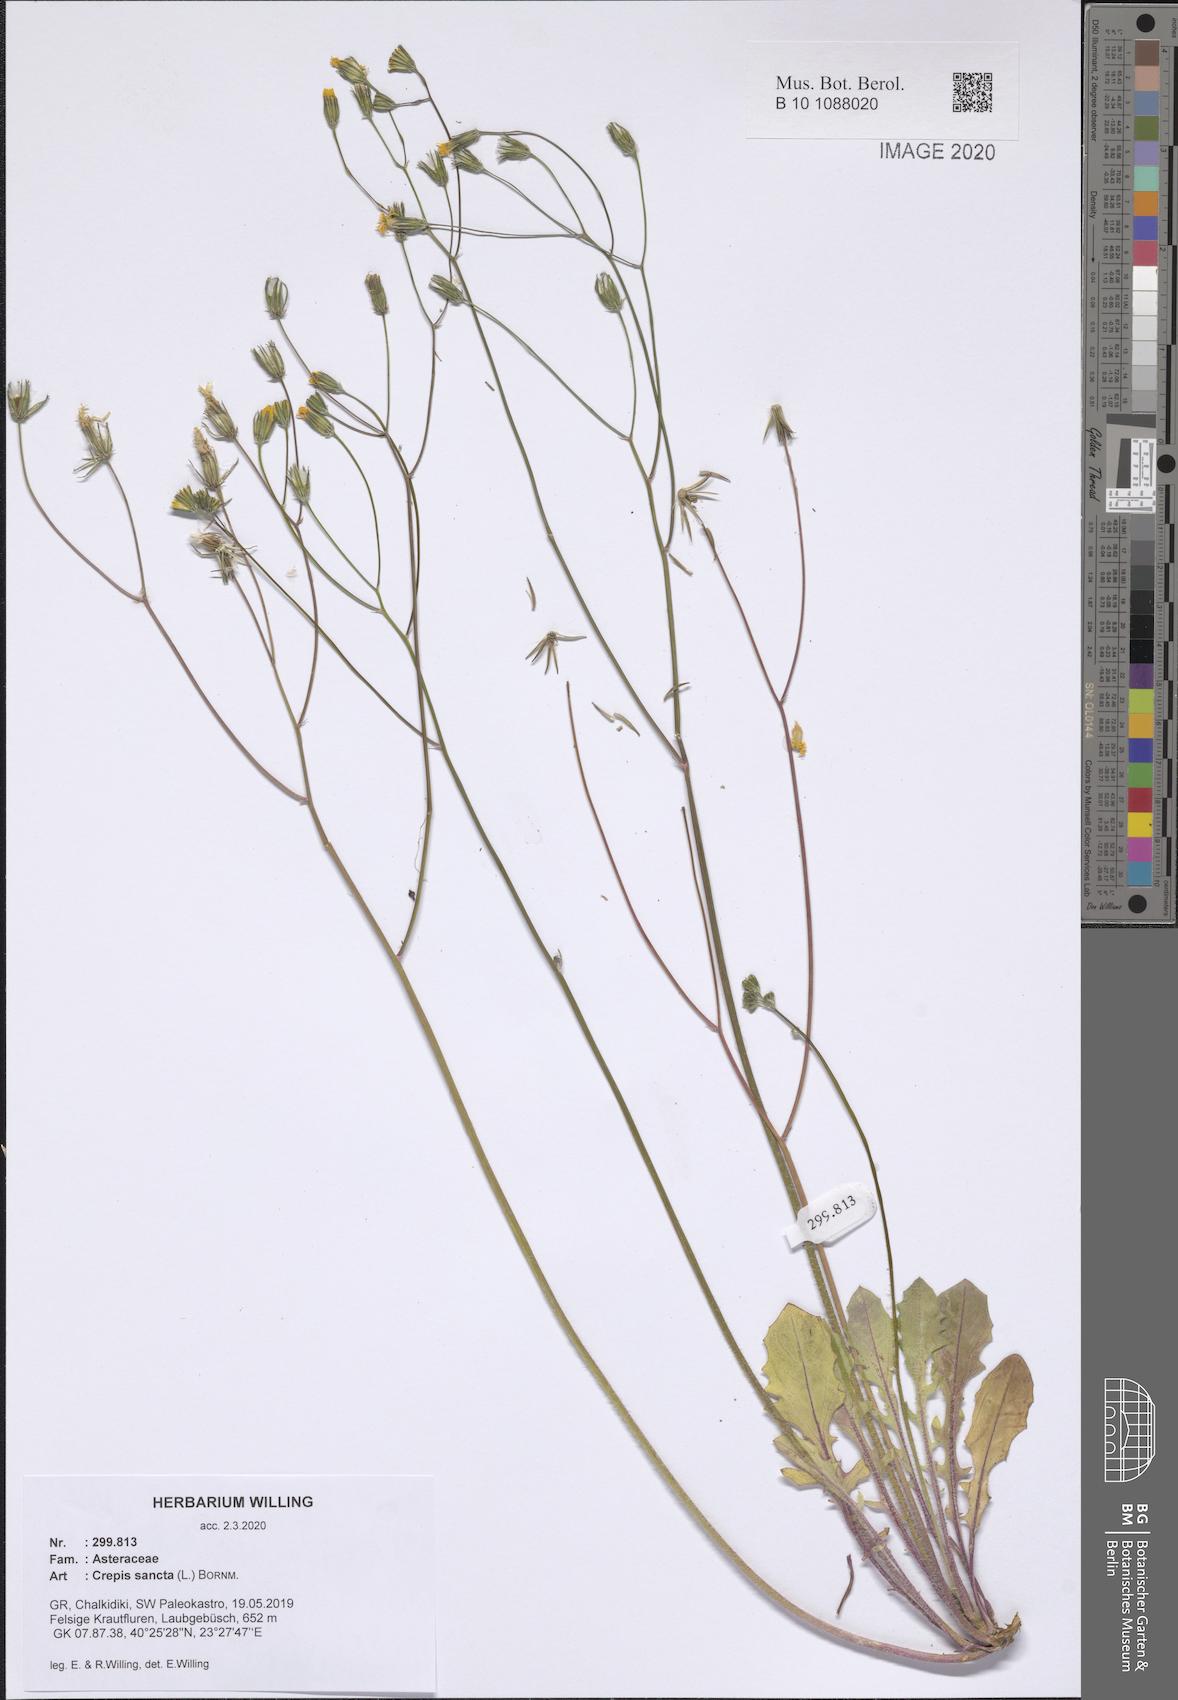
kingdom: Plantae
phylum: Tracheophyta
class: Magnoliopsida
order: Asterales
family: Asteraceae
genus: Crepis
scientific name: Crepis sancta
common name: Hawk's-beard
